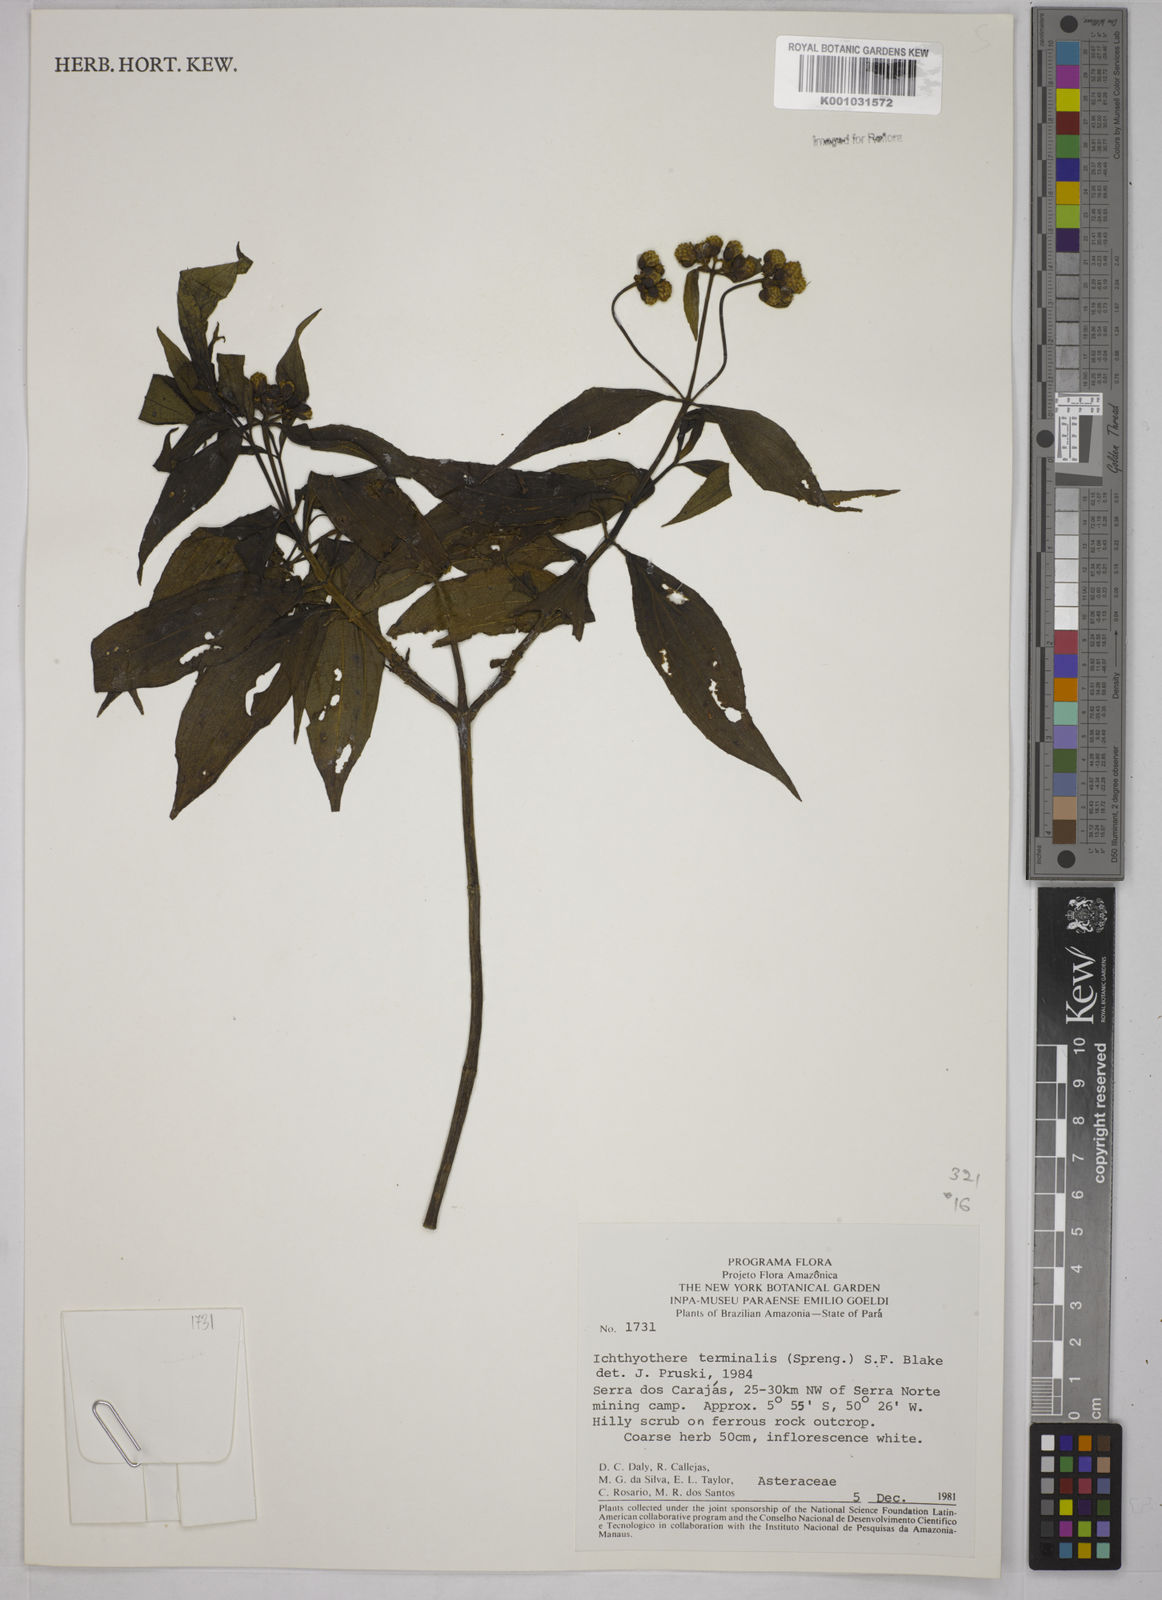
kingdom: Plantae
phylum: Tracheophyta
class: Magnoliopsida
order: Asterales
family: Asteraceae
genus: Ichthyothere
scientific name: Ichthyothere cunabi
